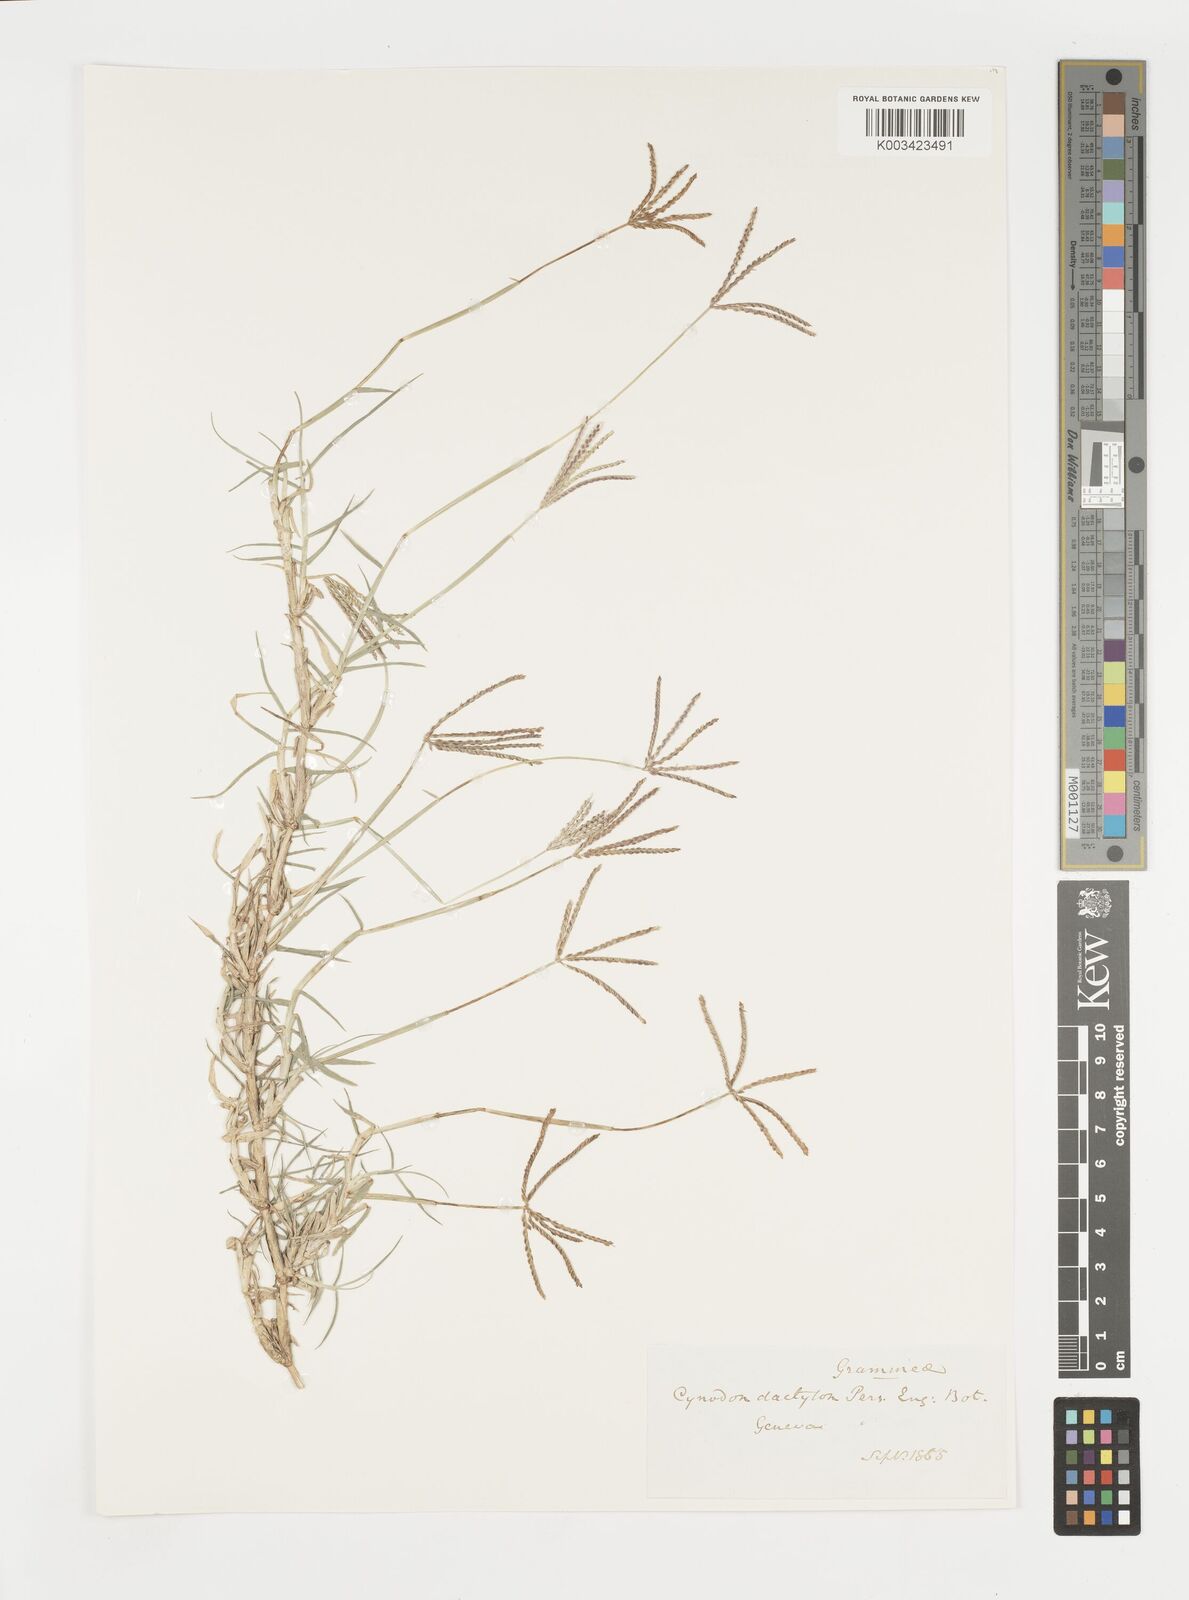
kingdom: Plantae
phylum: Tracheophyta
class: Liliopsida
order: Poales
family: Poaceae
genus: Cynodon
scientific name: Cynodon dactylon
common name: Bermuda grass
